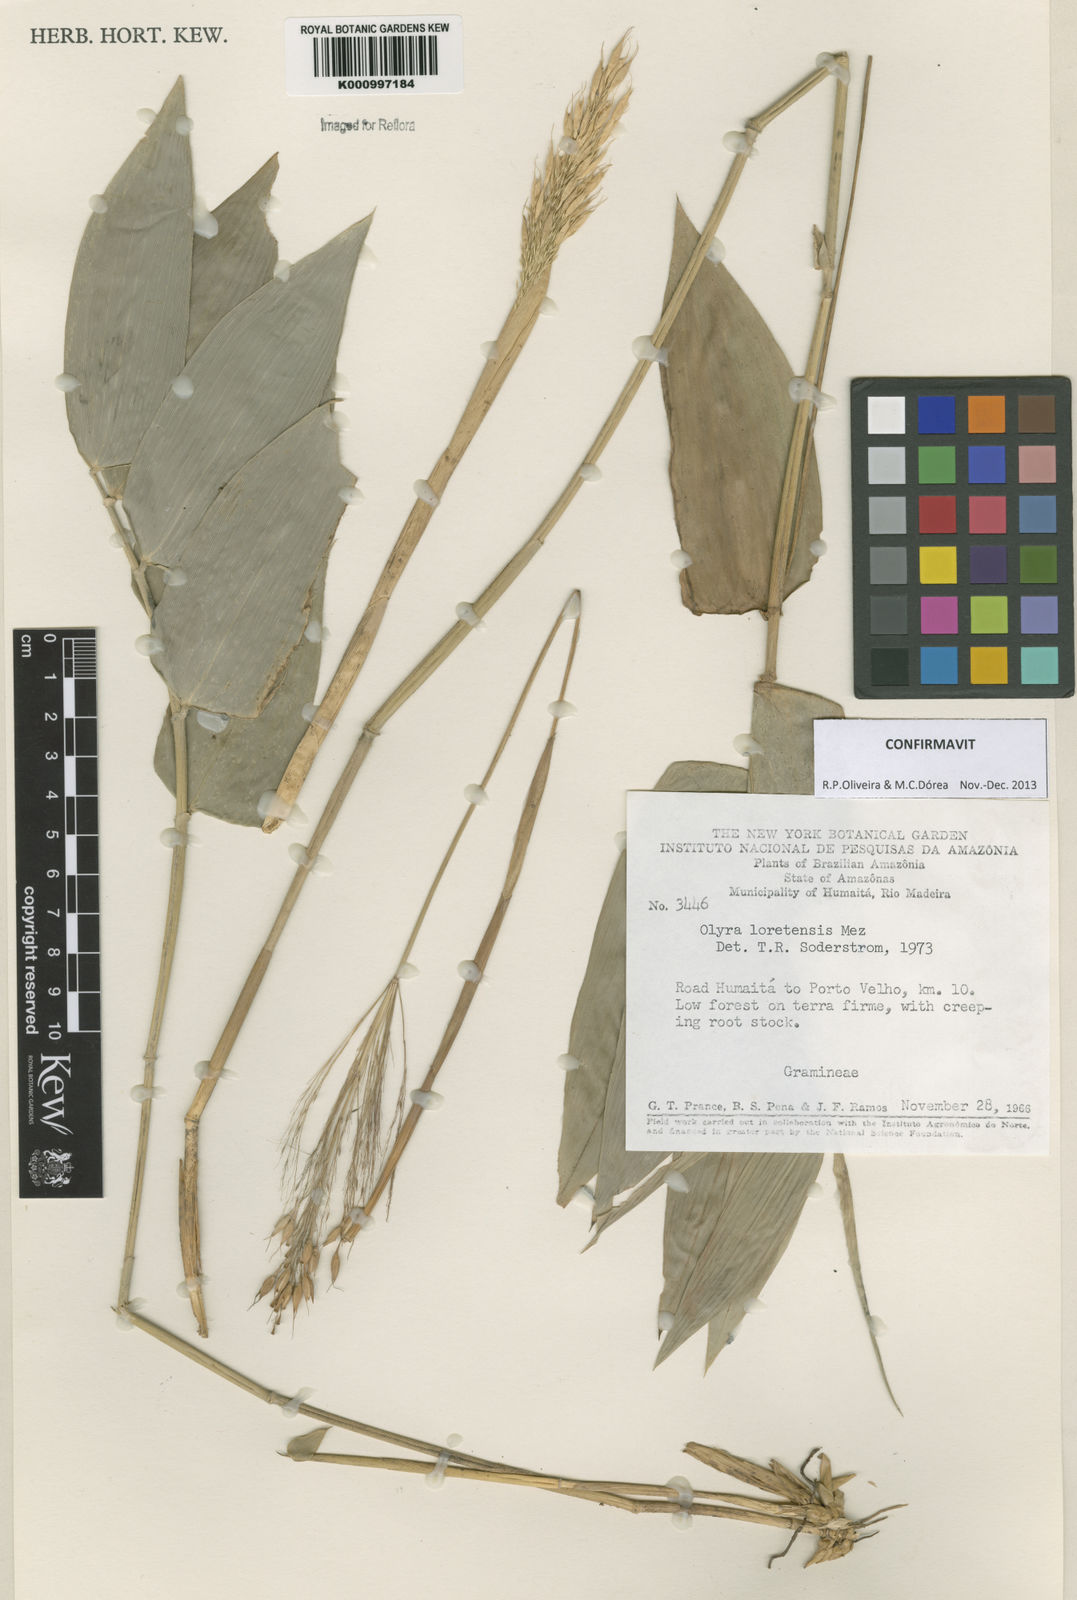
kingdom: Plantae
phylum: Tracheophyta
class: Liliopsida
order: Poales
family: Poaceae
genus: Olyra
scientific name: Olyra loretensis
